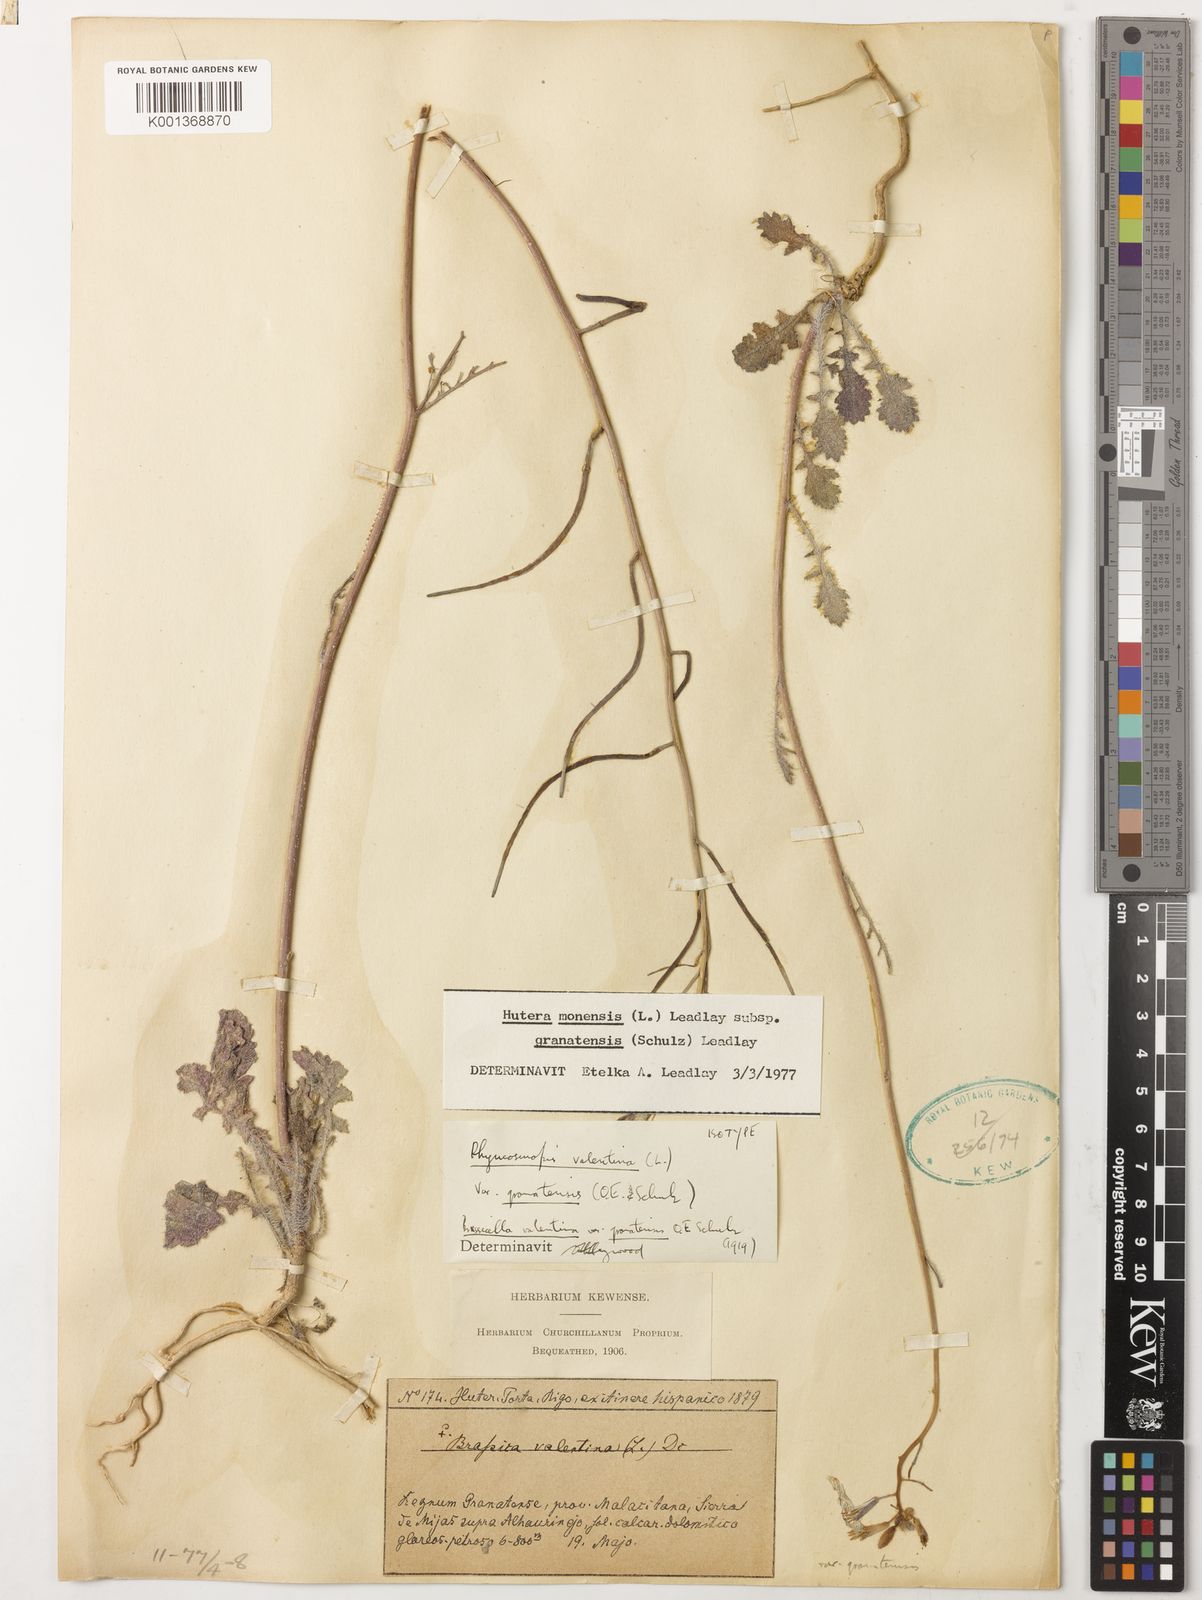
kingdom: Plantae
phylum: Tracheophyta
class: Magnoliopsida
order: Brassicales
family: Brassicaceae
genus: Coincya
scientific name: Coincya monensis
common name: Star-mustard
